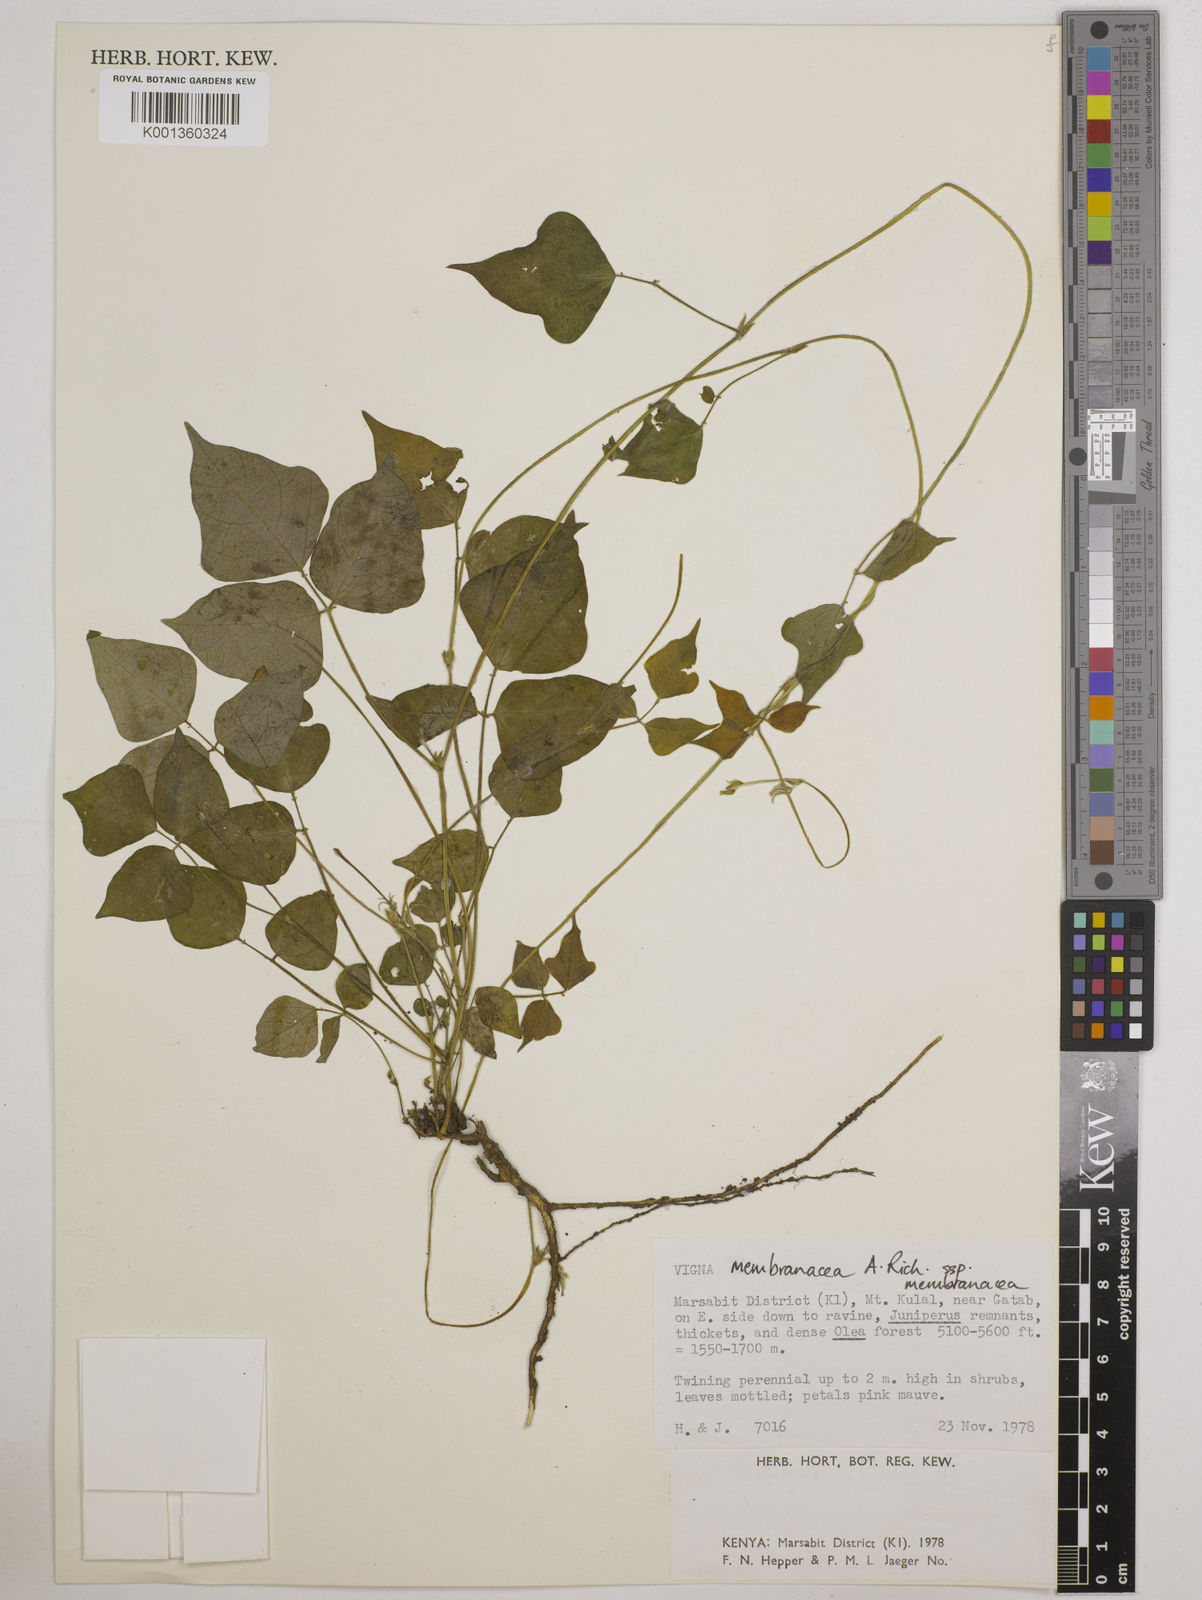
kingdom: Plantae
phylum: Tracheophyta
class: Magnoliopsida
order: Fabales
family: Fabaceae
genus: Vigna
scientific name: Vigna membranacea
